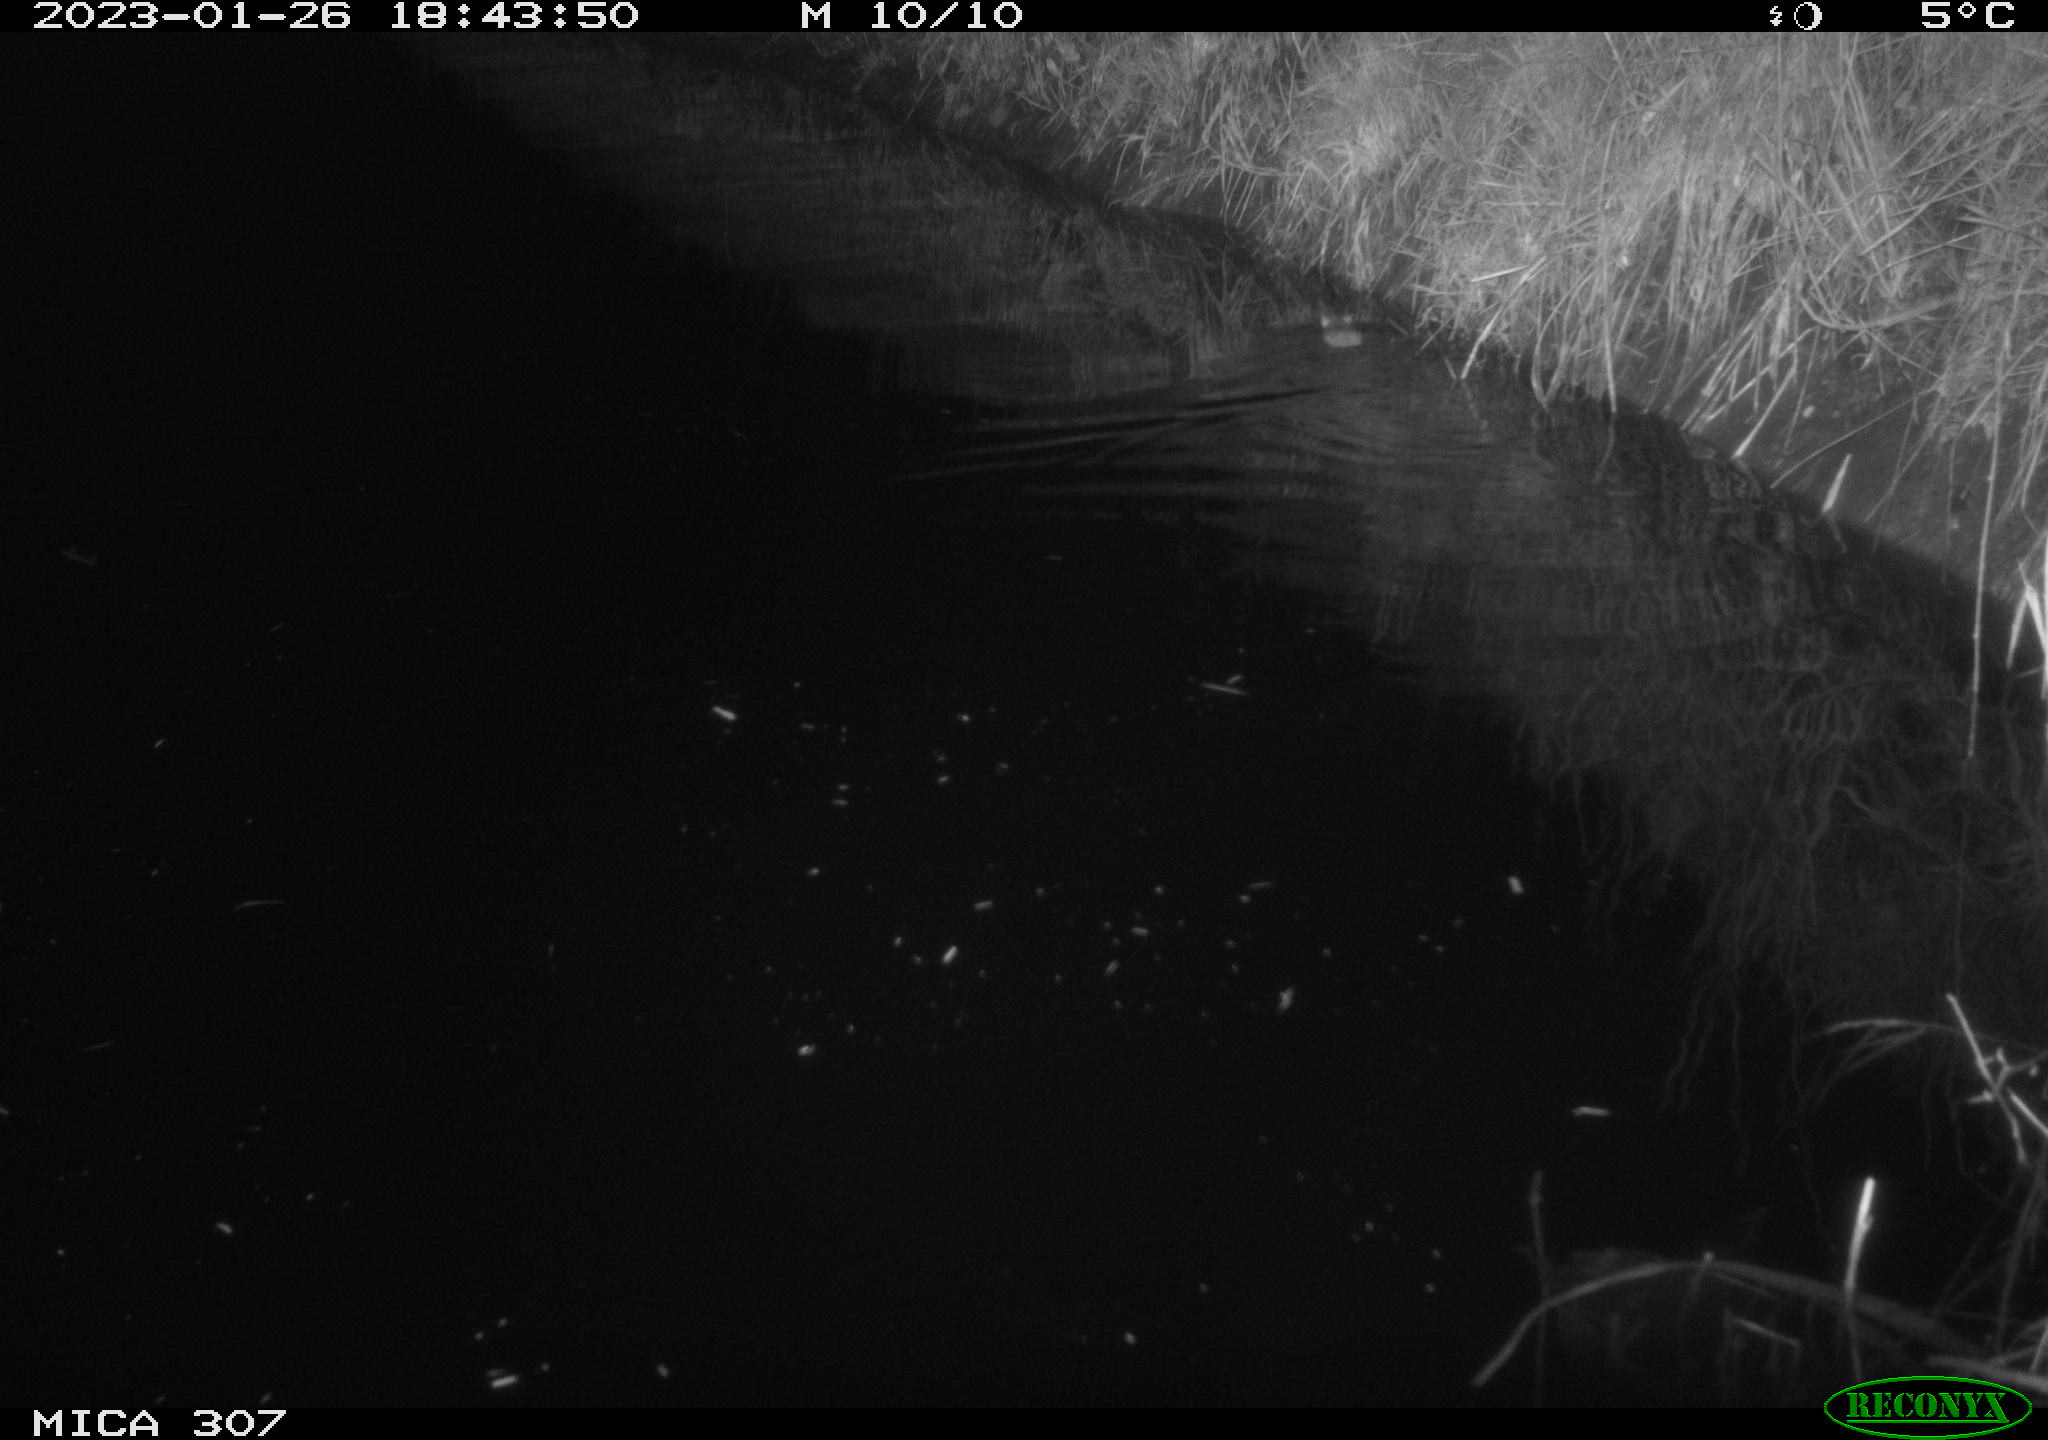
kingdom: Animalia
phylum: Chordata
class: Mammalia
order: Rodentia
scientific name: Rodentia
